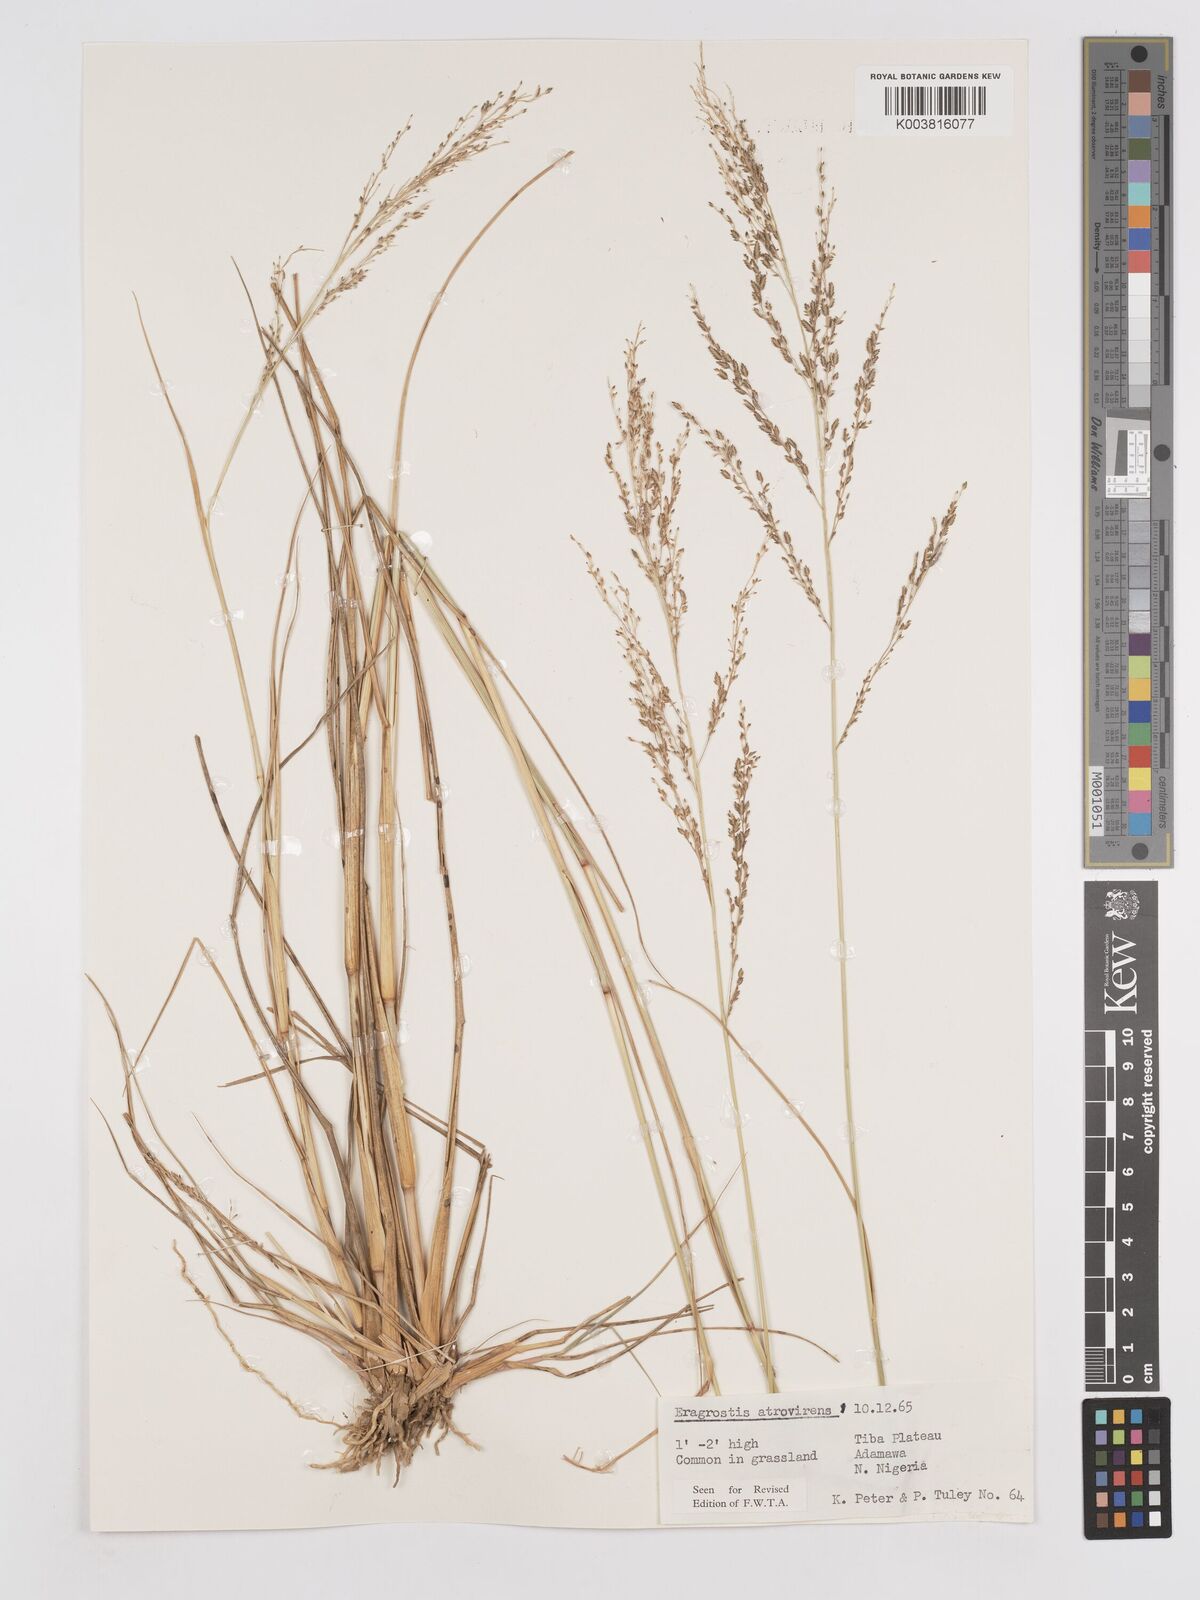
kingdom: Plantae
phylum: Tracheophyta
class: Liliopsida
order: Poales
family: Poaceae
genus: Eragrostis
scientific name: Eragrostis atrovirens
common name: Thalia lovegrass
